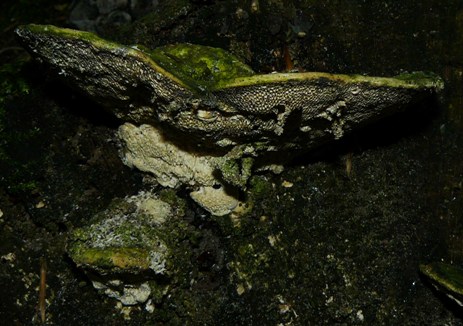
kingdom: Fungi
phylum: Basidiomycota
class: Agaricomycetes
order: Polyporales
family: Polyporaceae
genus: Trametes
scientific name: Trametes gibbosa
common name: puklet læderporesvamp
